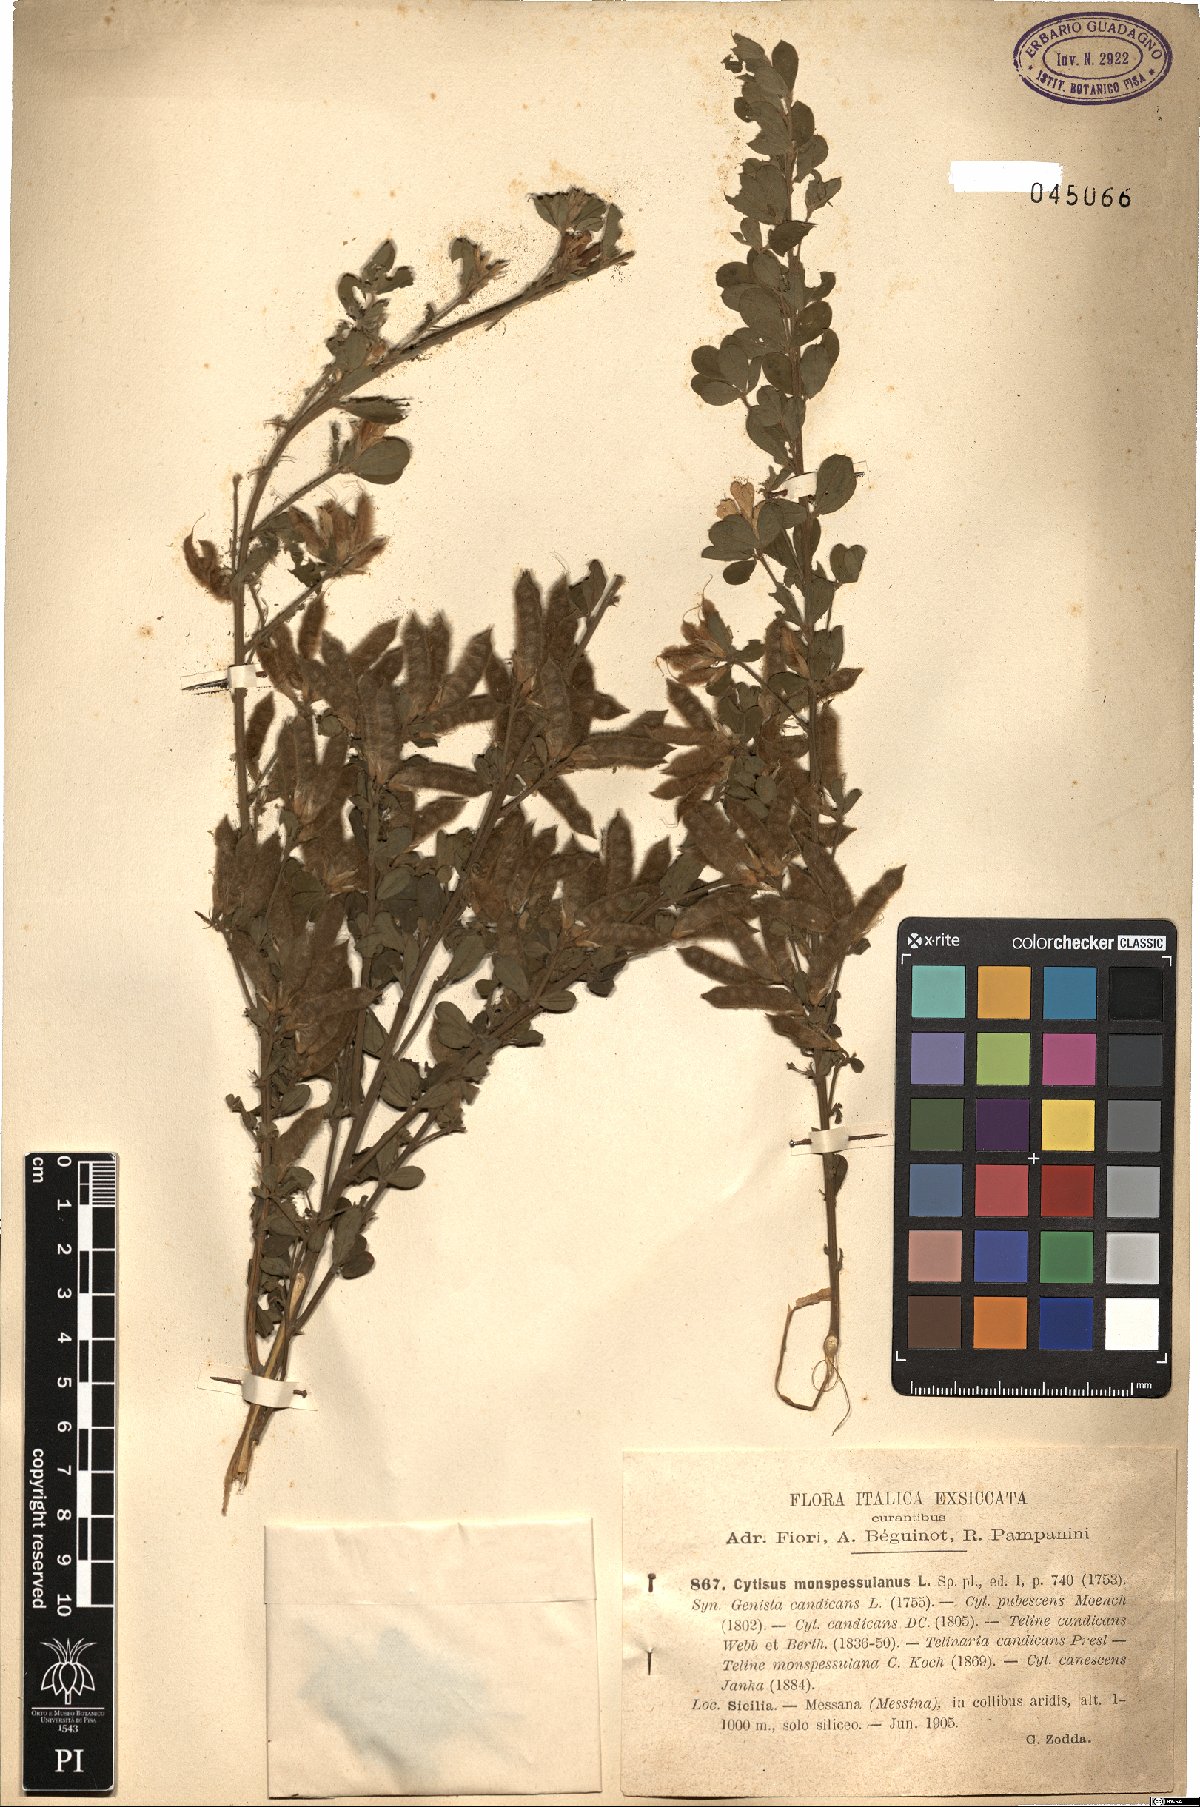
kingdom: Plantae
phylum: Tracheophyta
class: Magnoliopsida
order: Fabales
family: Fabaceae
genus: Genista
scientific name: Genista monspessulana
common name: Montpellier broom
